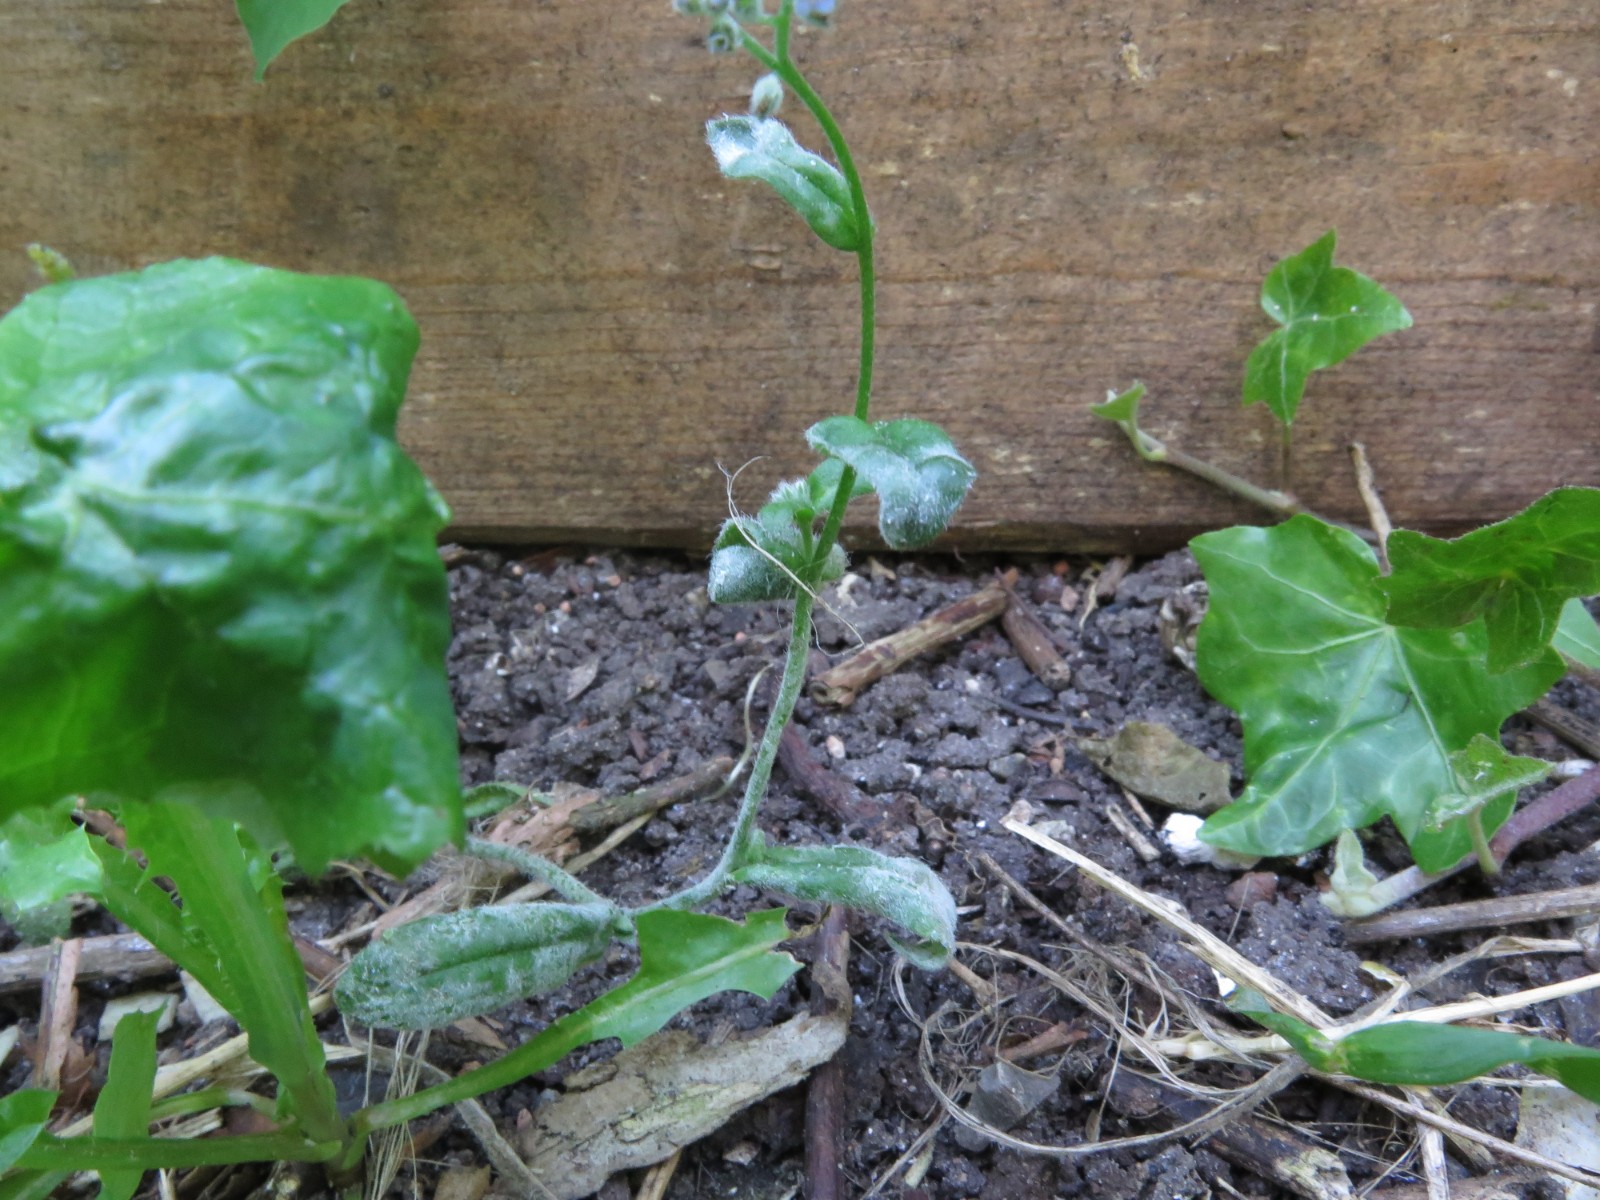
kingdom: Fungi
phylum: Ascomycota
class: Leotiomycetes
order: Helotiales
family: Erysiphaceae
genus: Golovinomyces
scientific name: Golovinomyces asperifolii
